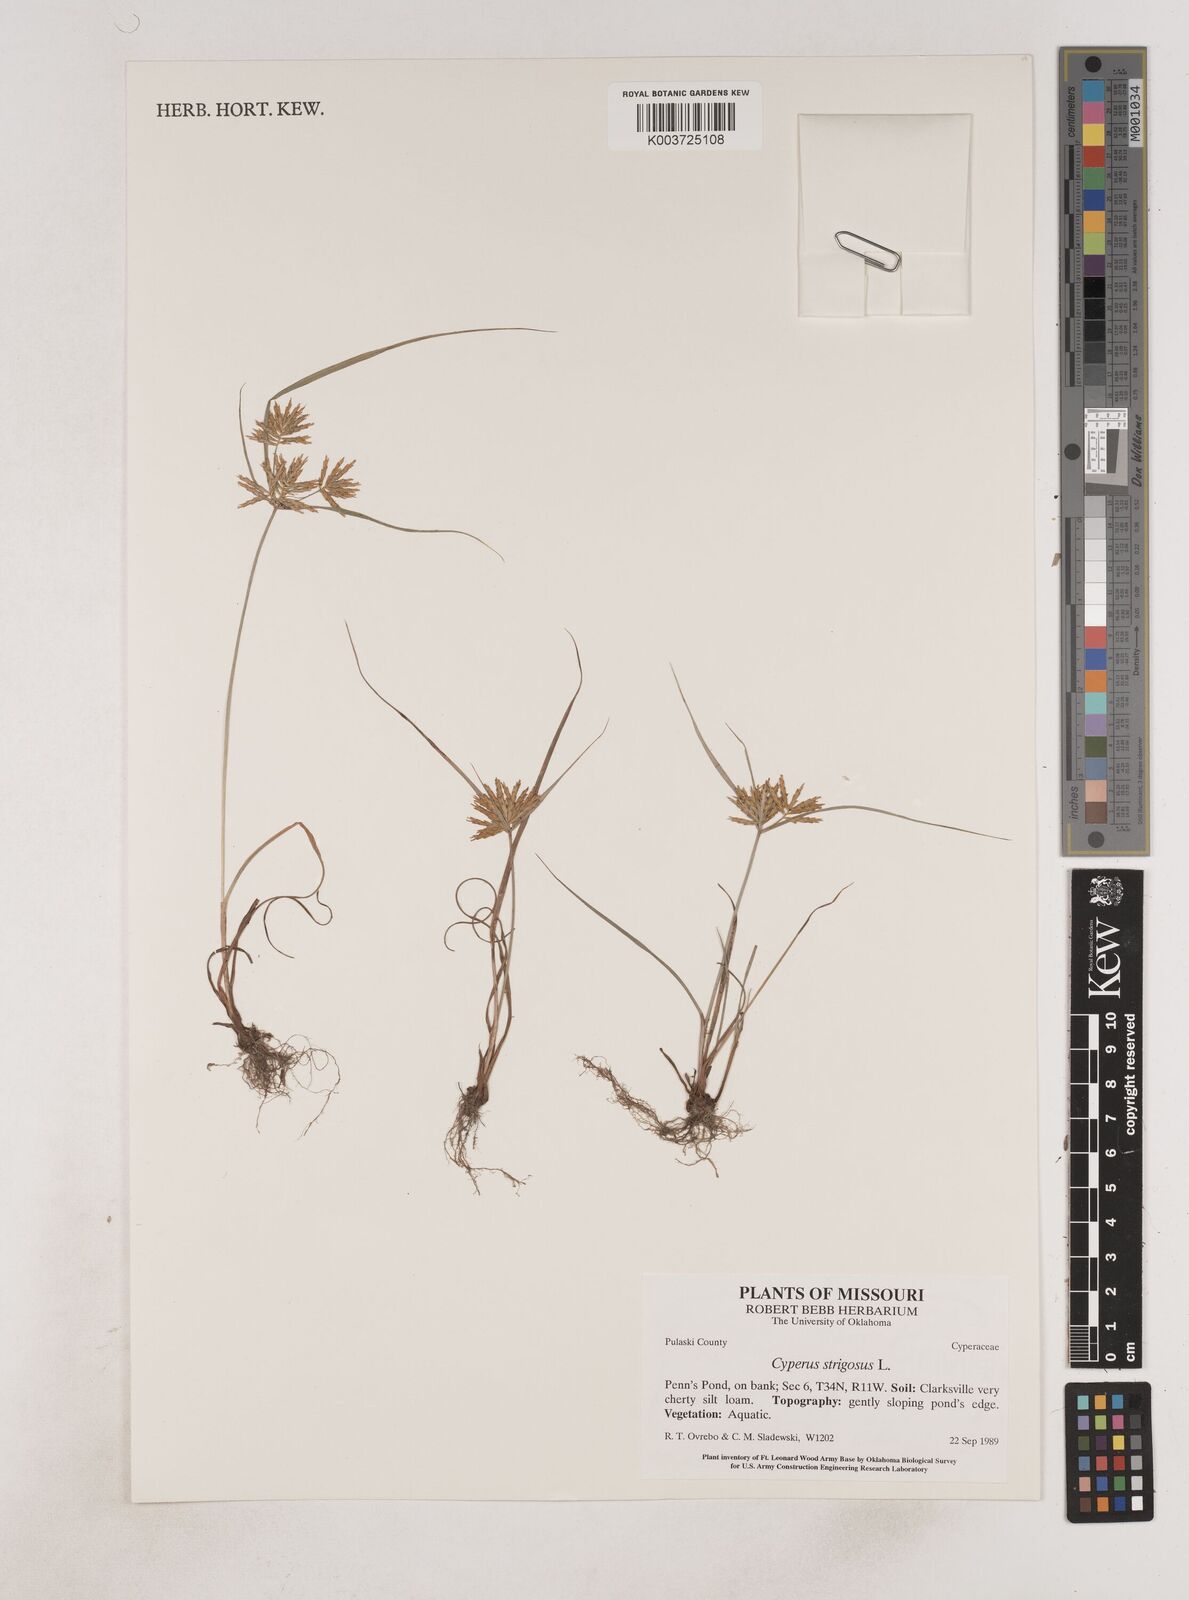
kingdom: Plantae
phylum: Tracheophyta
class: Liliopsida
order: Poales
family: Cyperaceae
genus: Cyperus
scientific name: Cyperus strigosus
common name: False nutsedge
